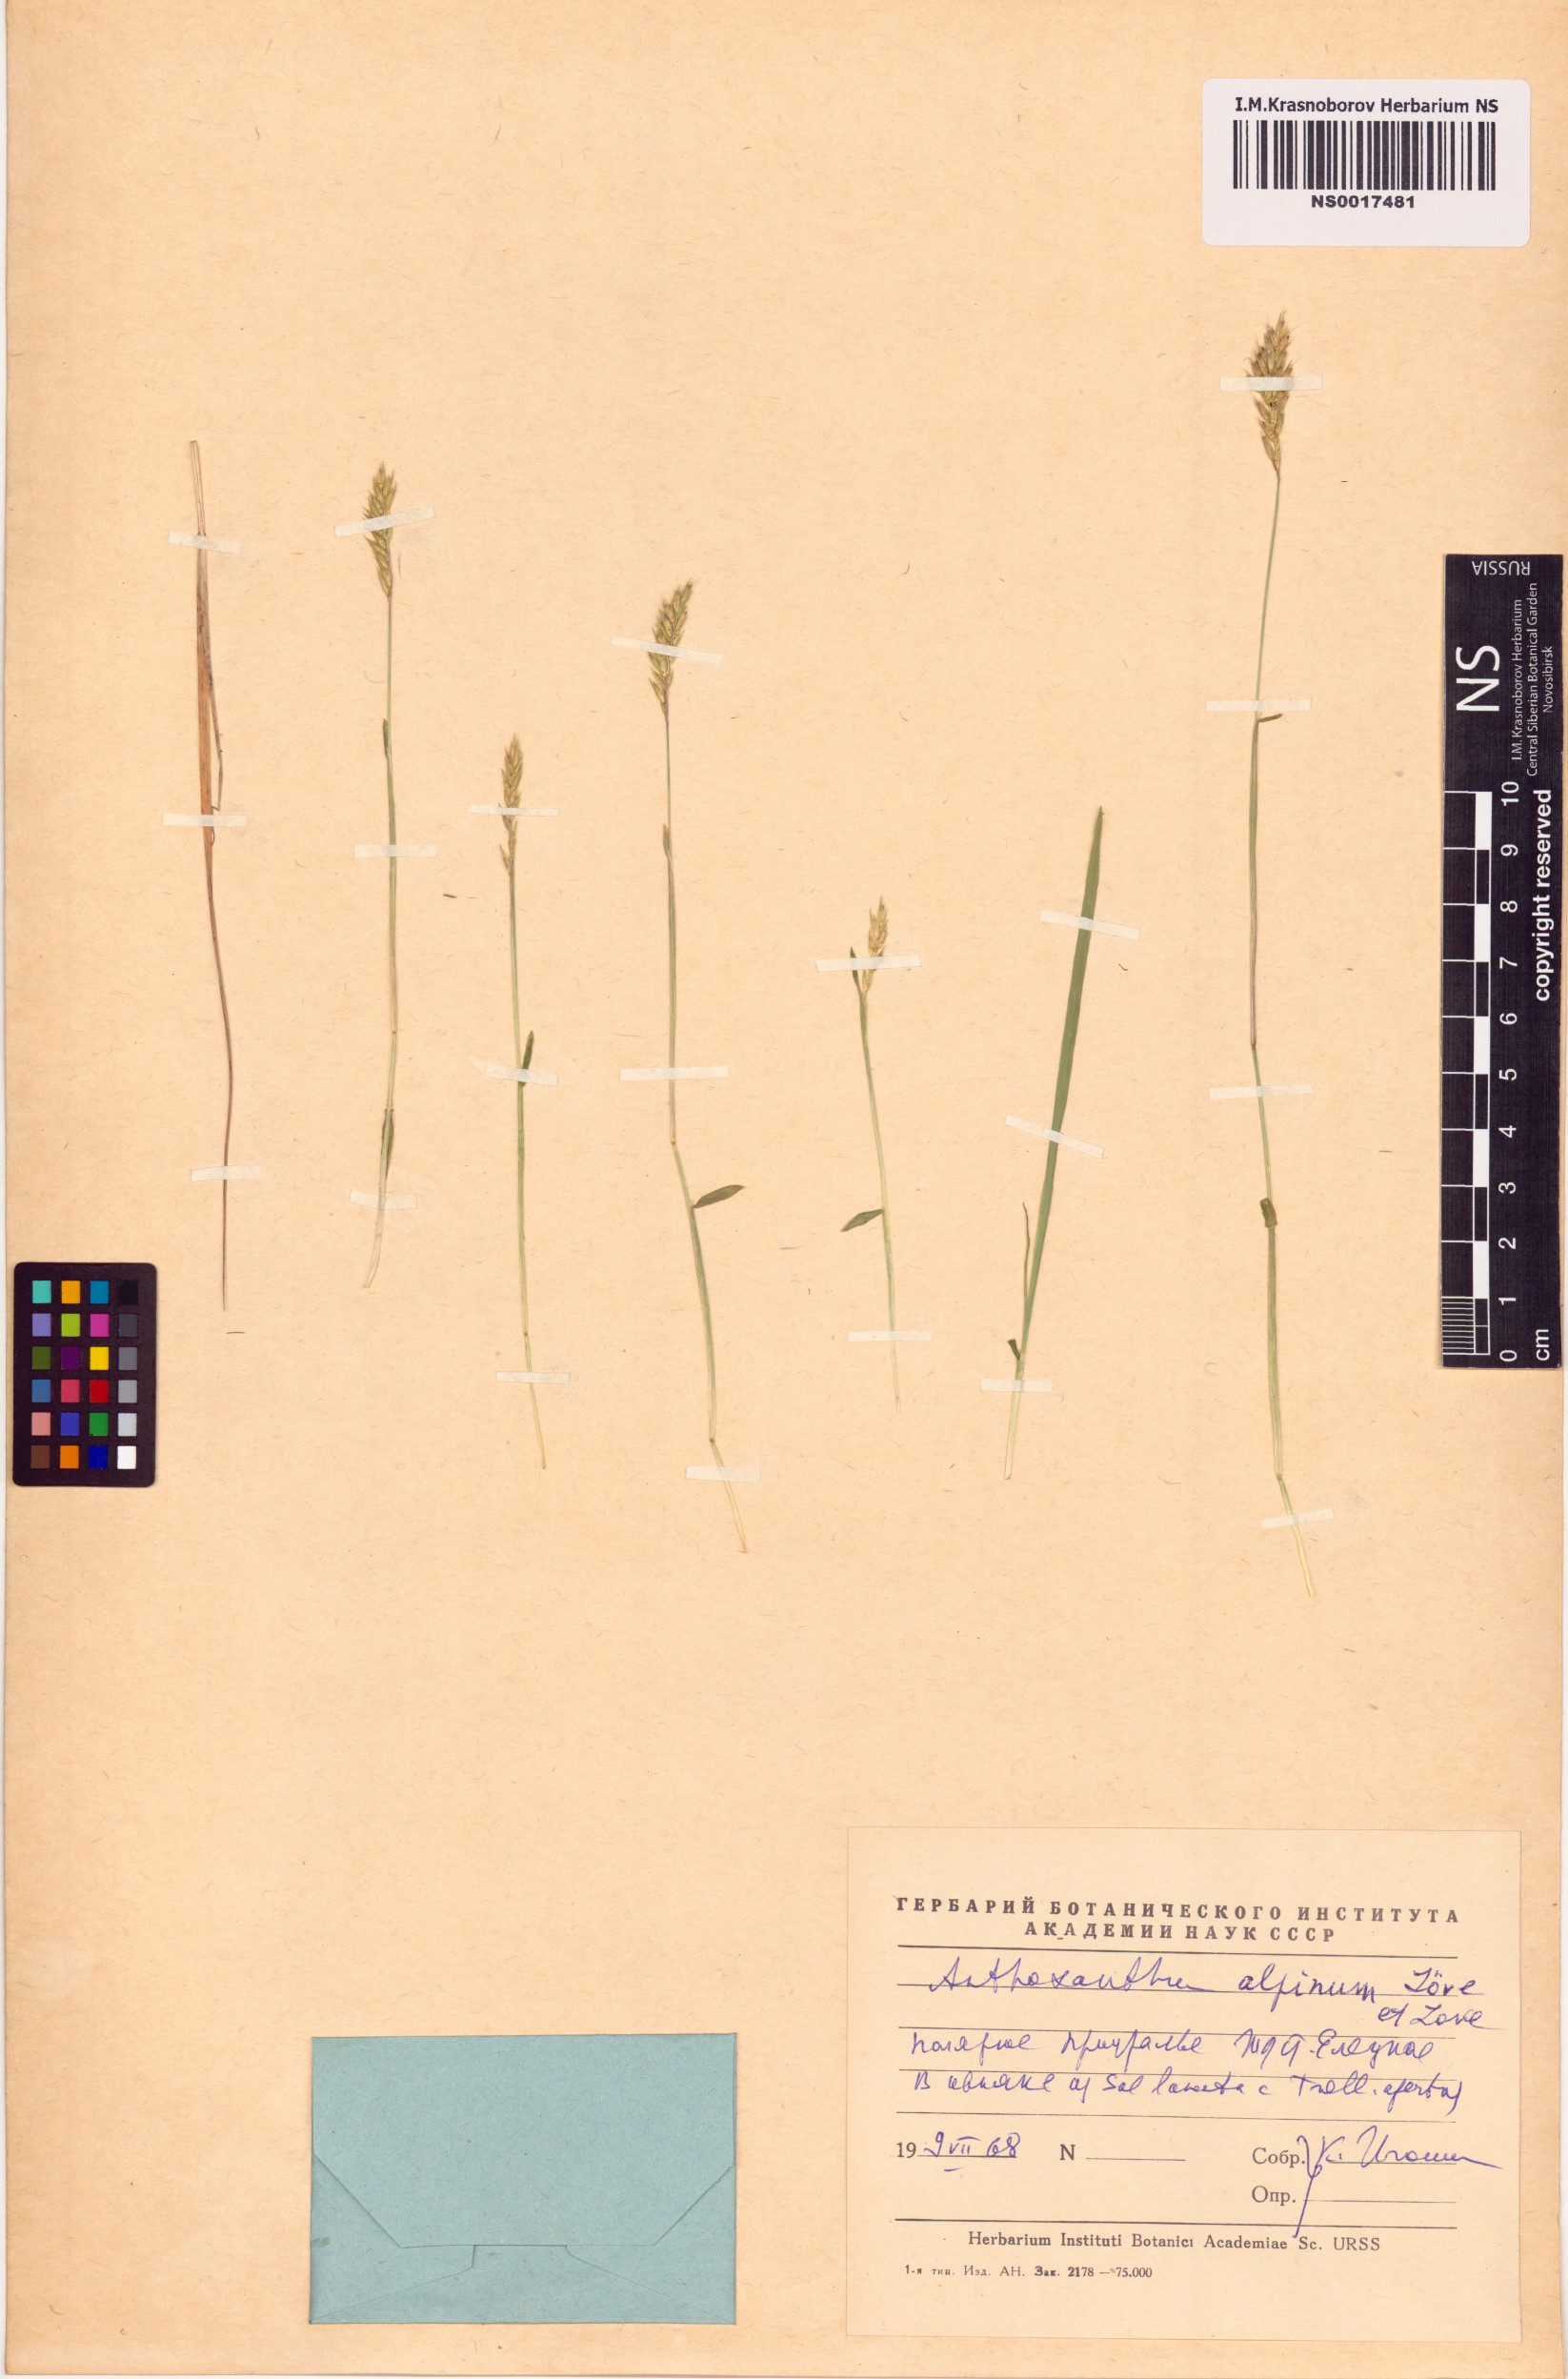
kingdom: Plantae
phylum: Tracheophyta
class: Liliopsida
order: Poales
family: Poaceae
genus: Anthoxanthum
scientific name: Anthoxanthum nipponicum
